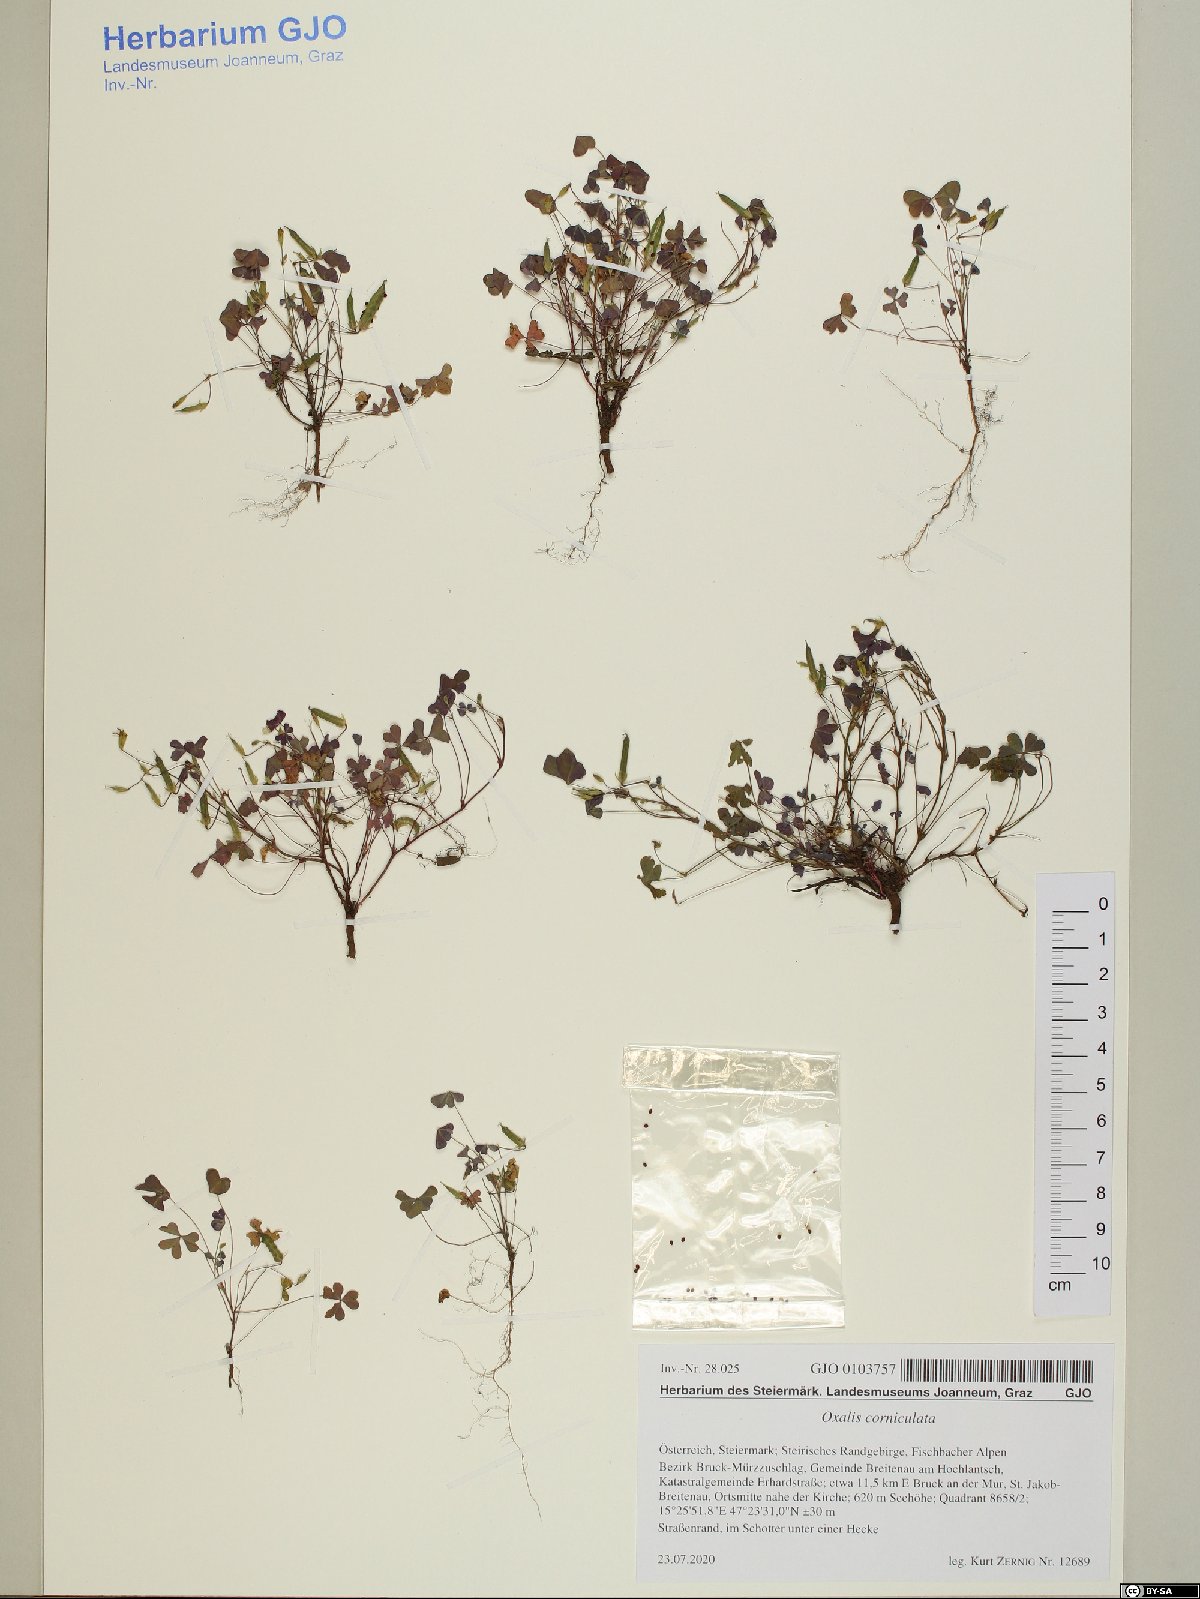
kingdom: Plantae
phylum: Tracheophyta
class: Magnoliopsida
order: Oxalidales
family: Oxalidaceae
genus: Oxalis
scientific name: Oxalis corniculata
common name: Procumbent yellow-sorrel
